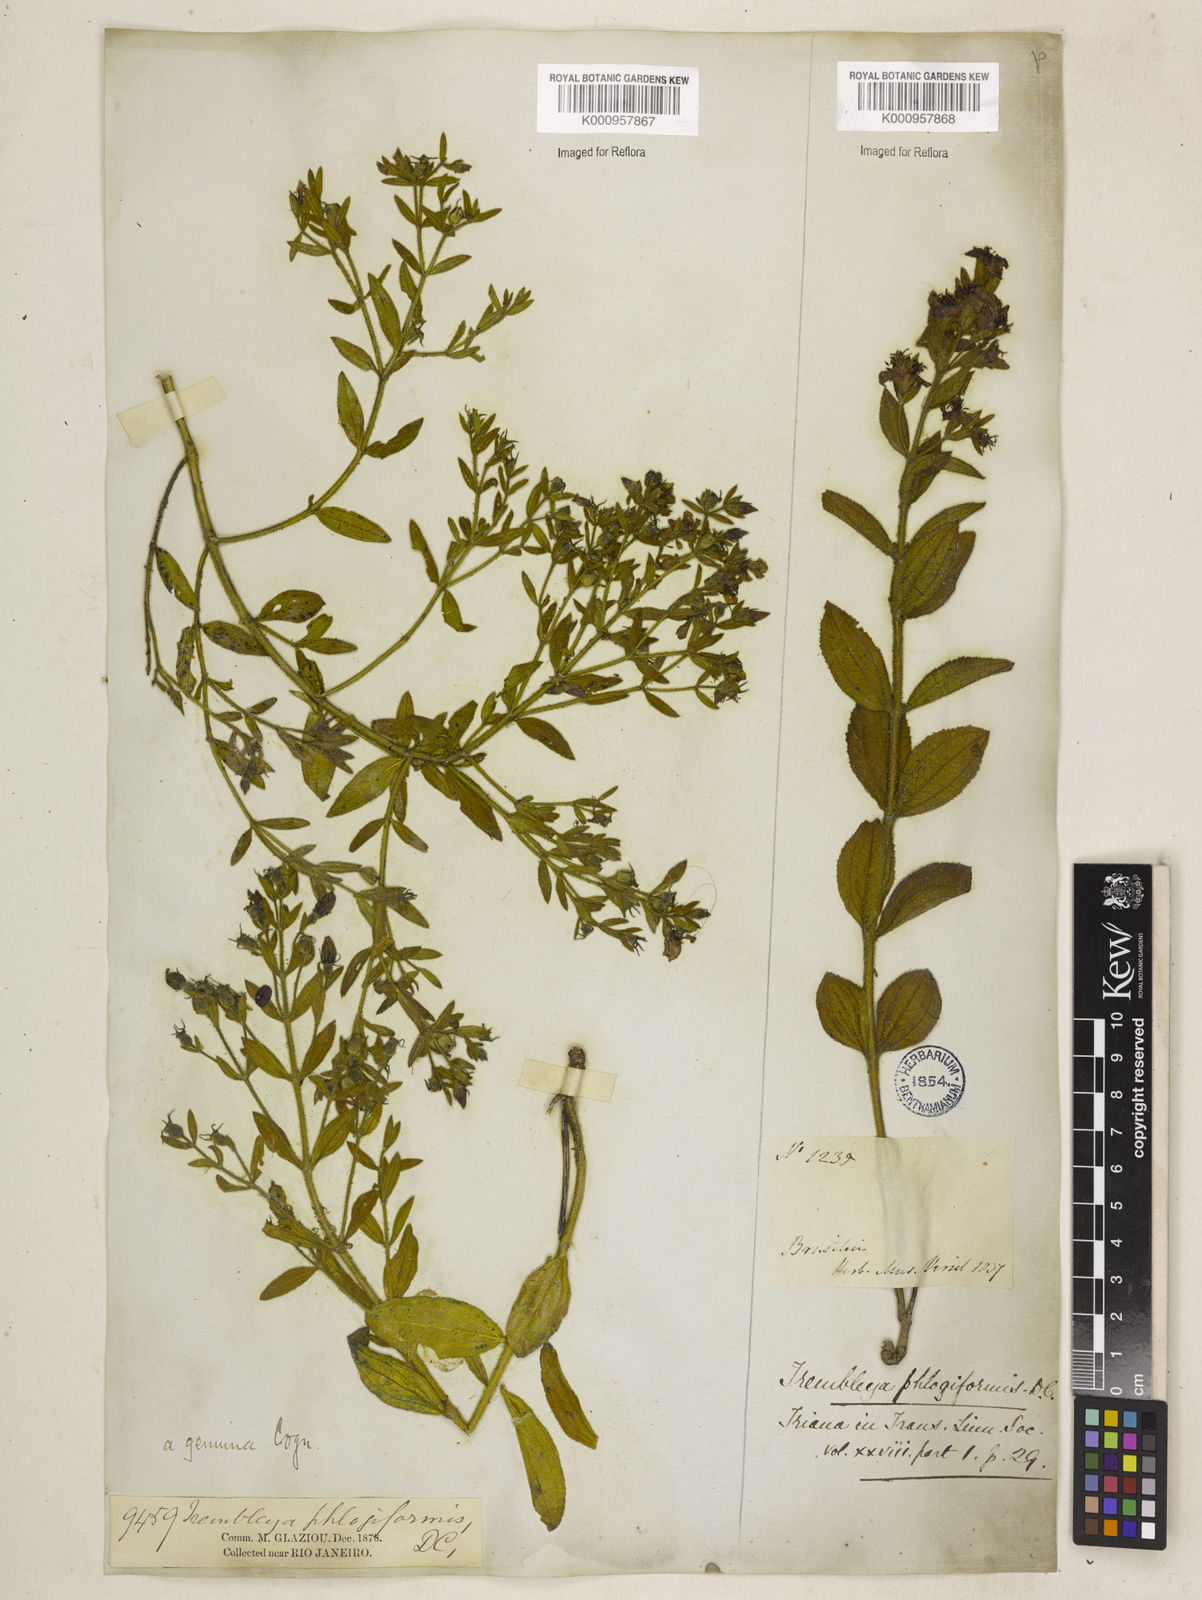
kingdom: Plantae
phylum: Tracheophyta
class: Magnoliopsida
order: Myrtales
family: Melastomataceae
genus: Microlicia
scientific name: Microlicia phlogiformis
